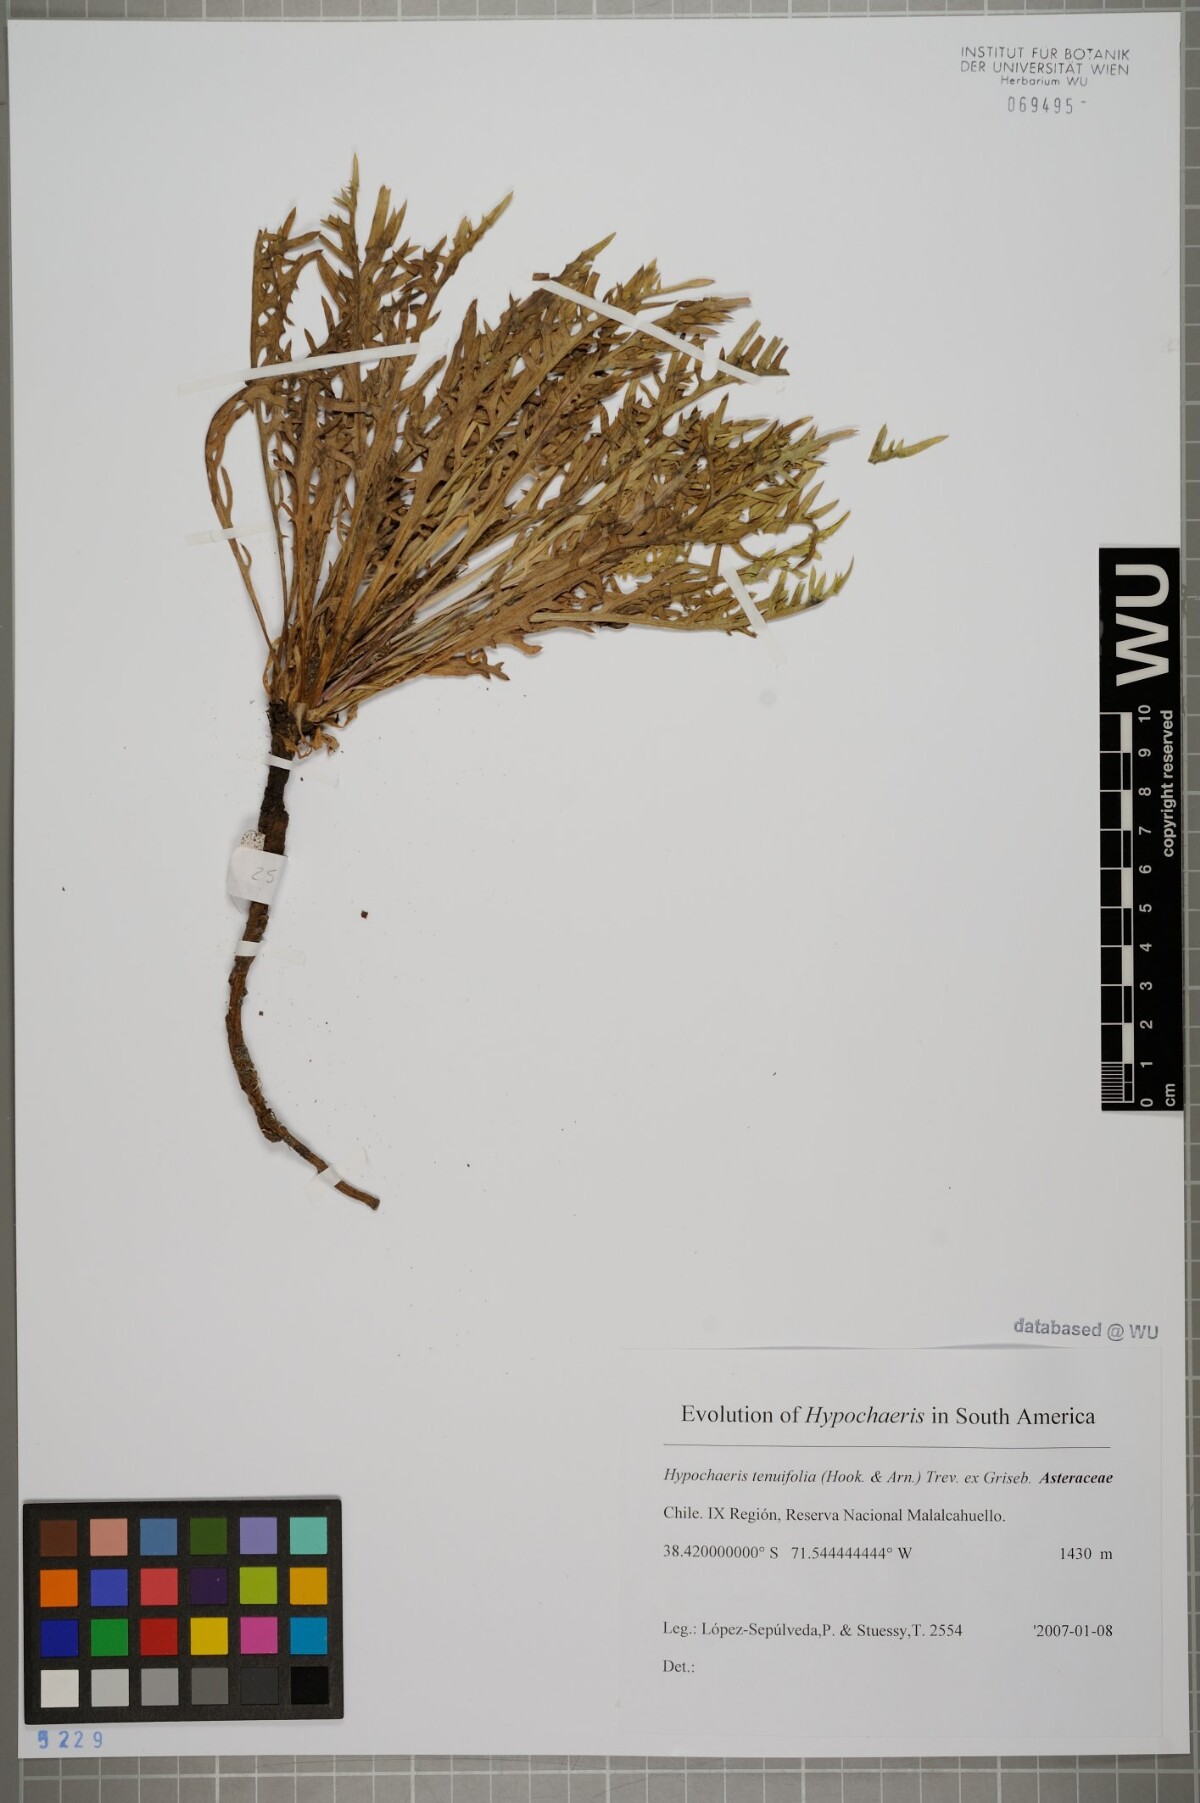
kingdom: Plantae
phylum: Tracheophyta
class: Magnoliopsida
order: Asterales
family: Asteraceae
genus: Hypochaeris
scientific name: Hypochaeris tenuifolia
